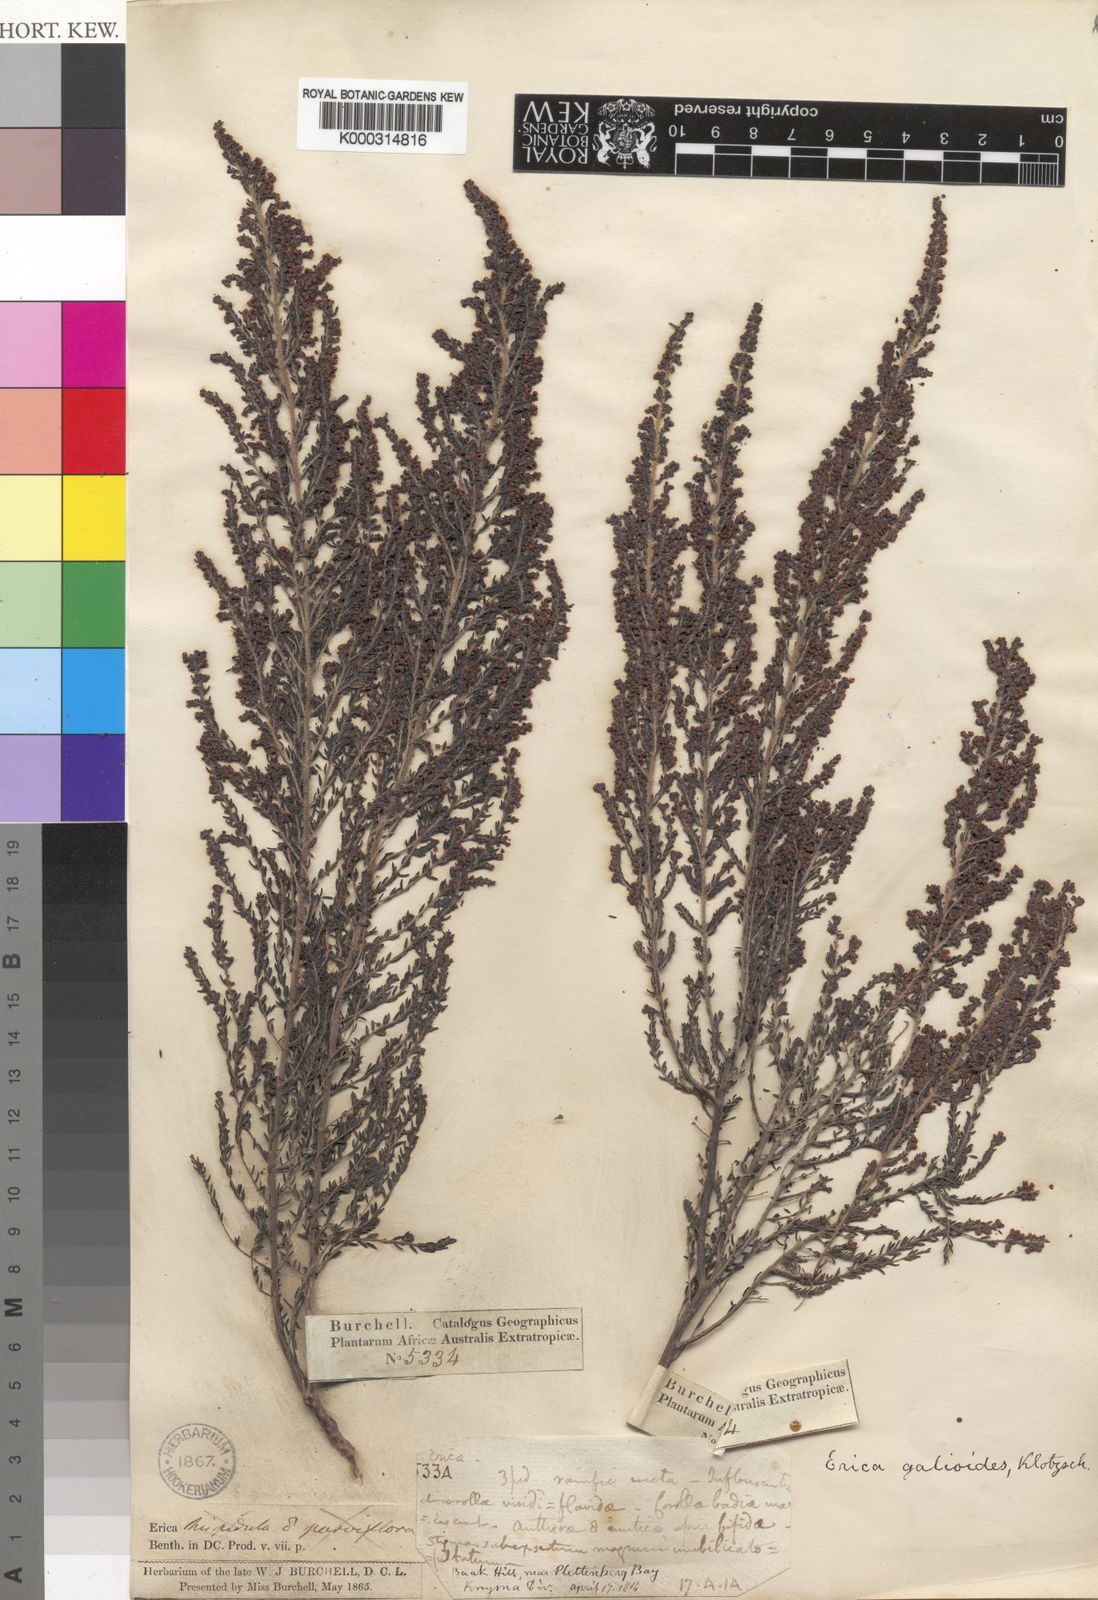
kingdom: Plantae
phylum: Tracheophyta
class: Magnoliopsida
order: Ericales
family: Ericaceae
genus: Erica
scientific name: Erica
